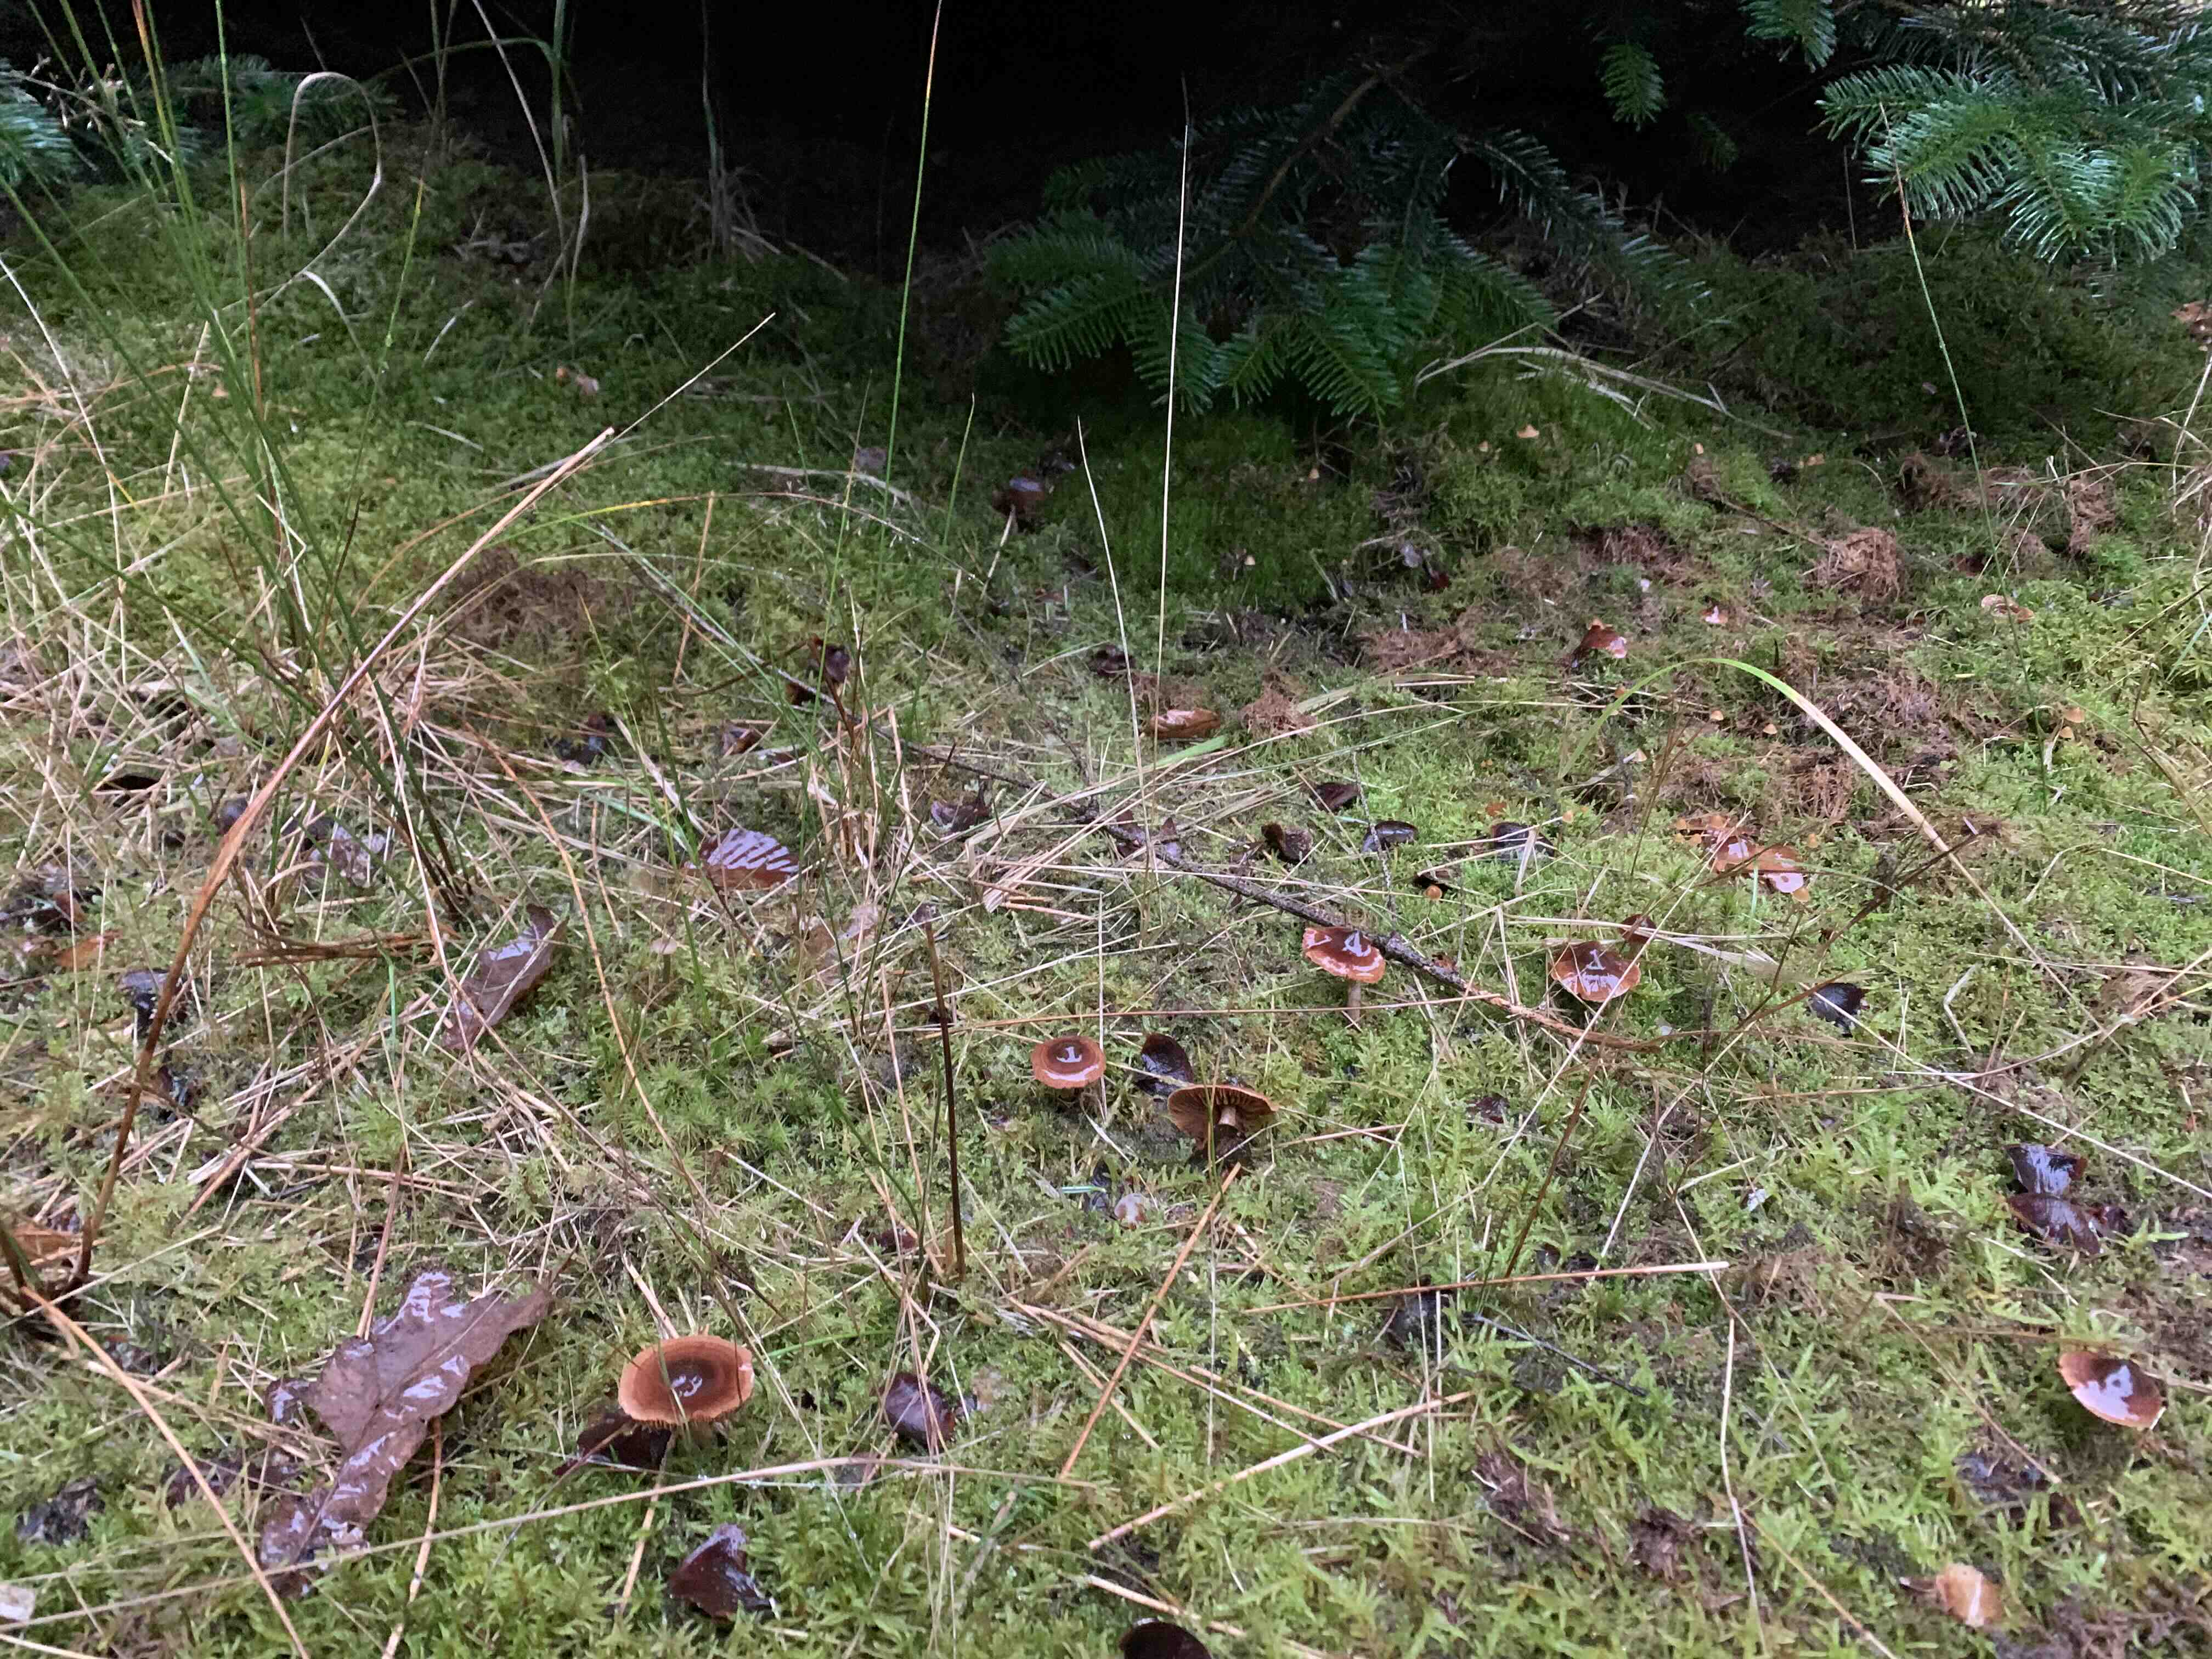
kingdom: Fungi
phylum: Basidiomycota
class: Agaricomycetes
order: Agaricales
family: Cortinariaceae
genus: Cortinarius
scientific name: Cortinarius
